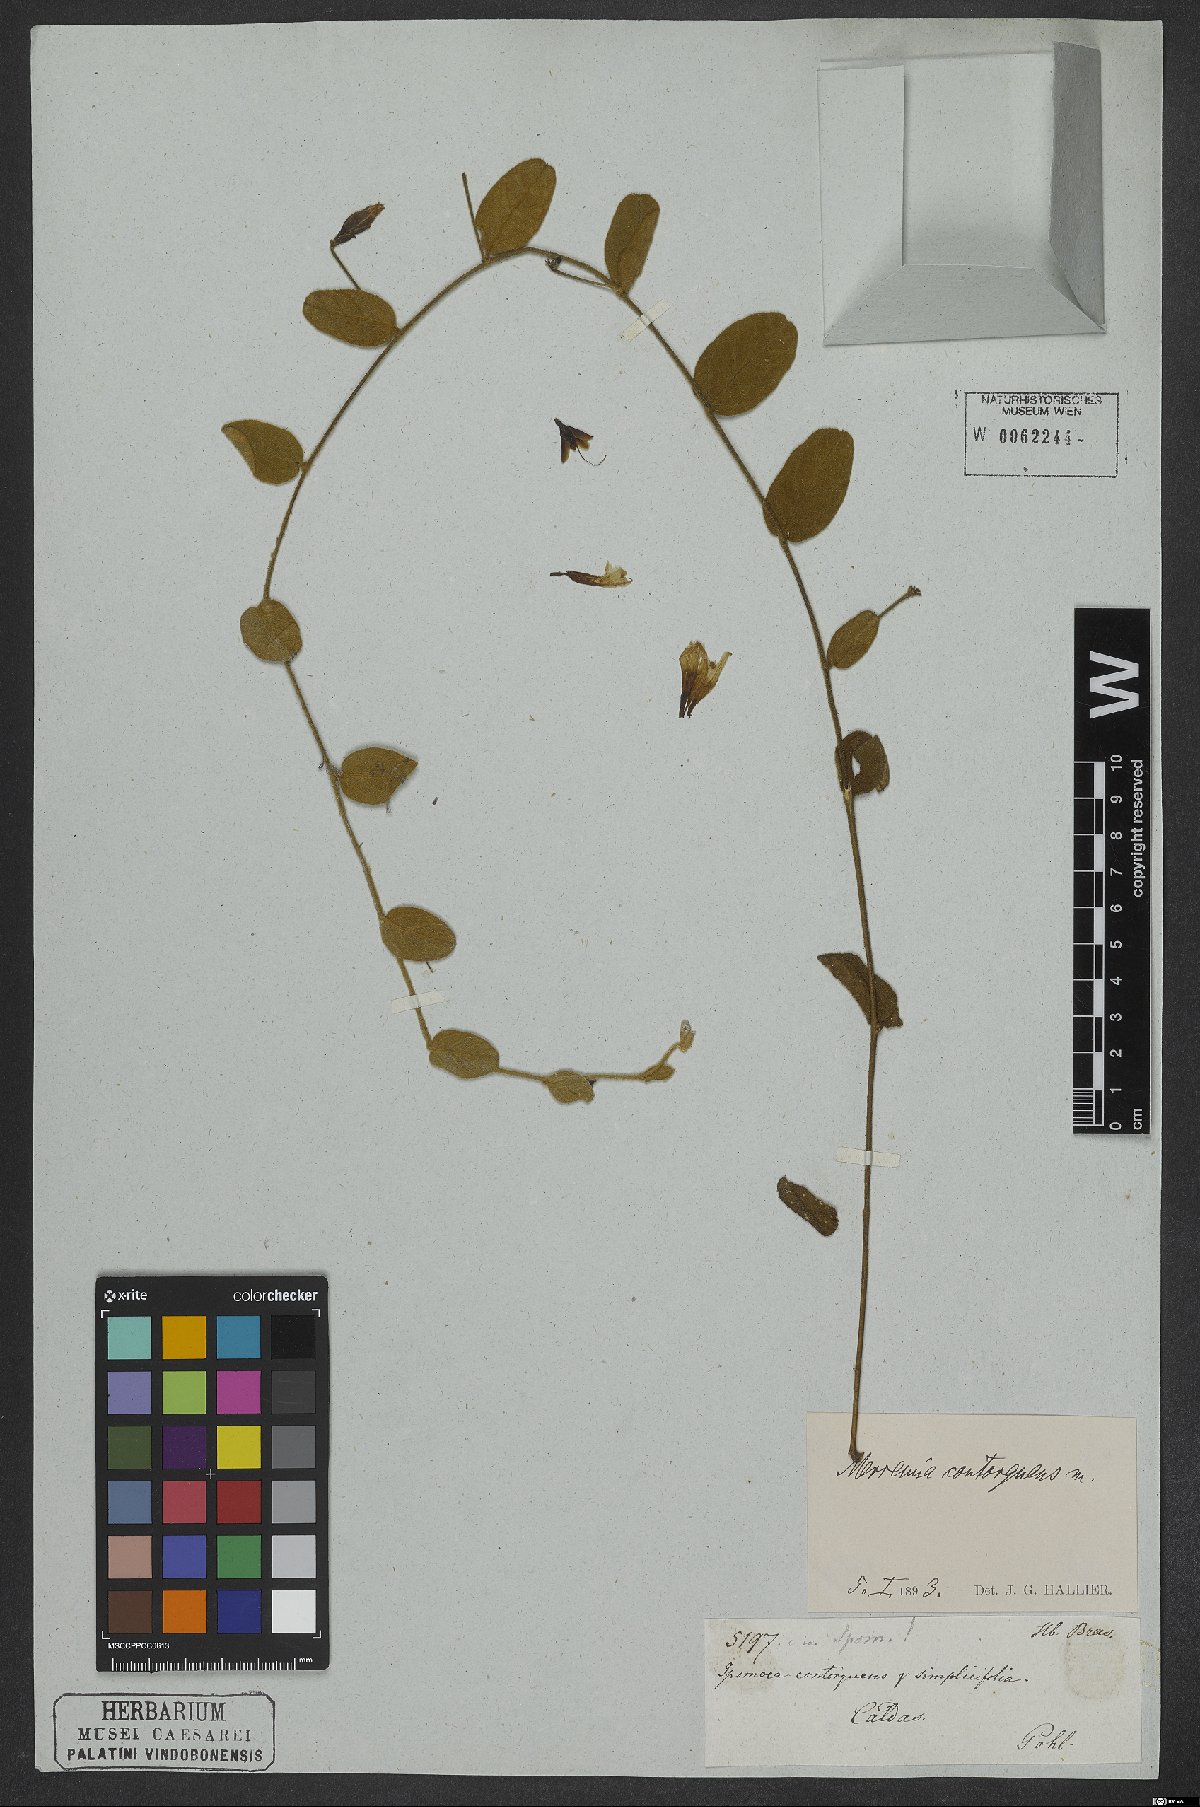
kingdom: Plantae
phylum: Tracheophyta
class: Magnoliopsida
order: Solanales
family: Convolvulaceae
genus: Distimake
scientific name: Distimake contorquens
